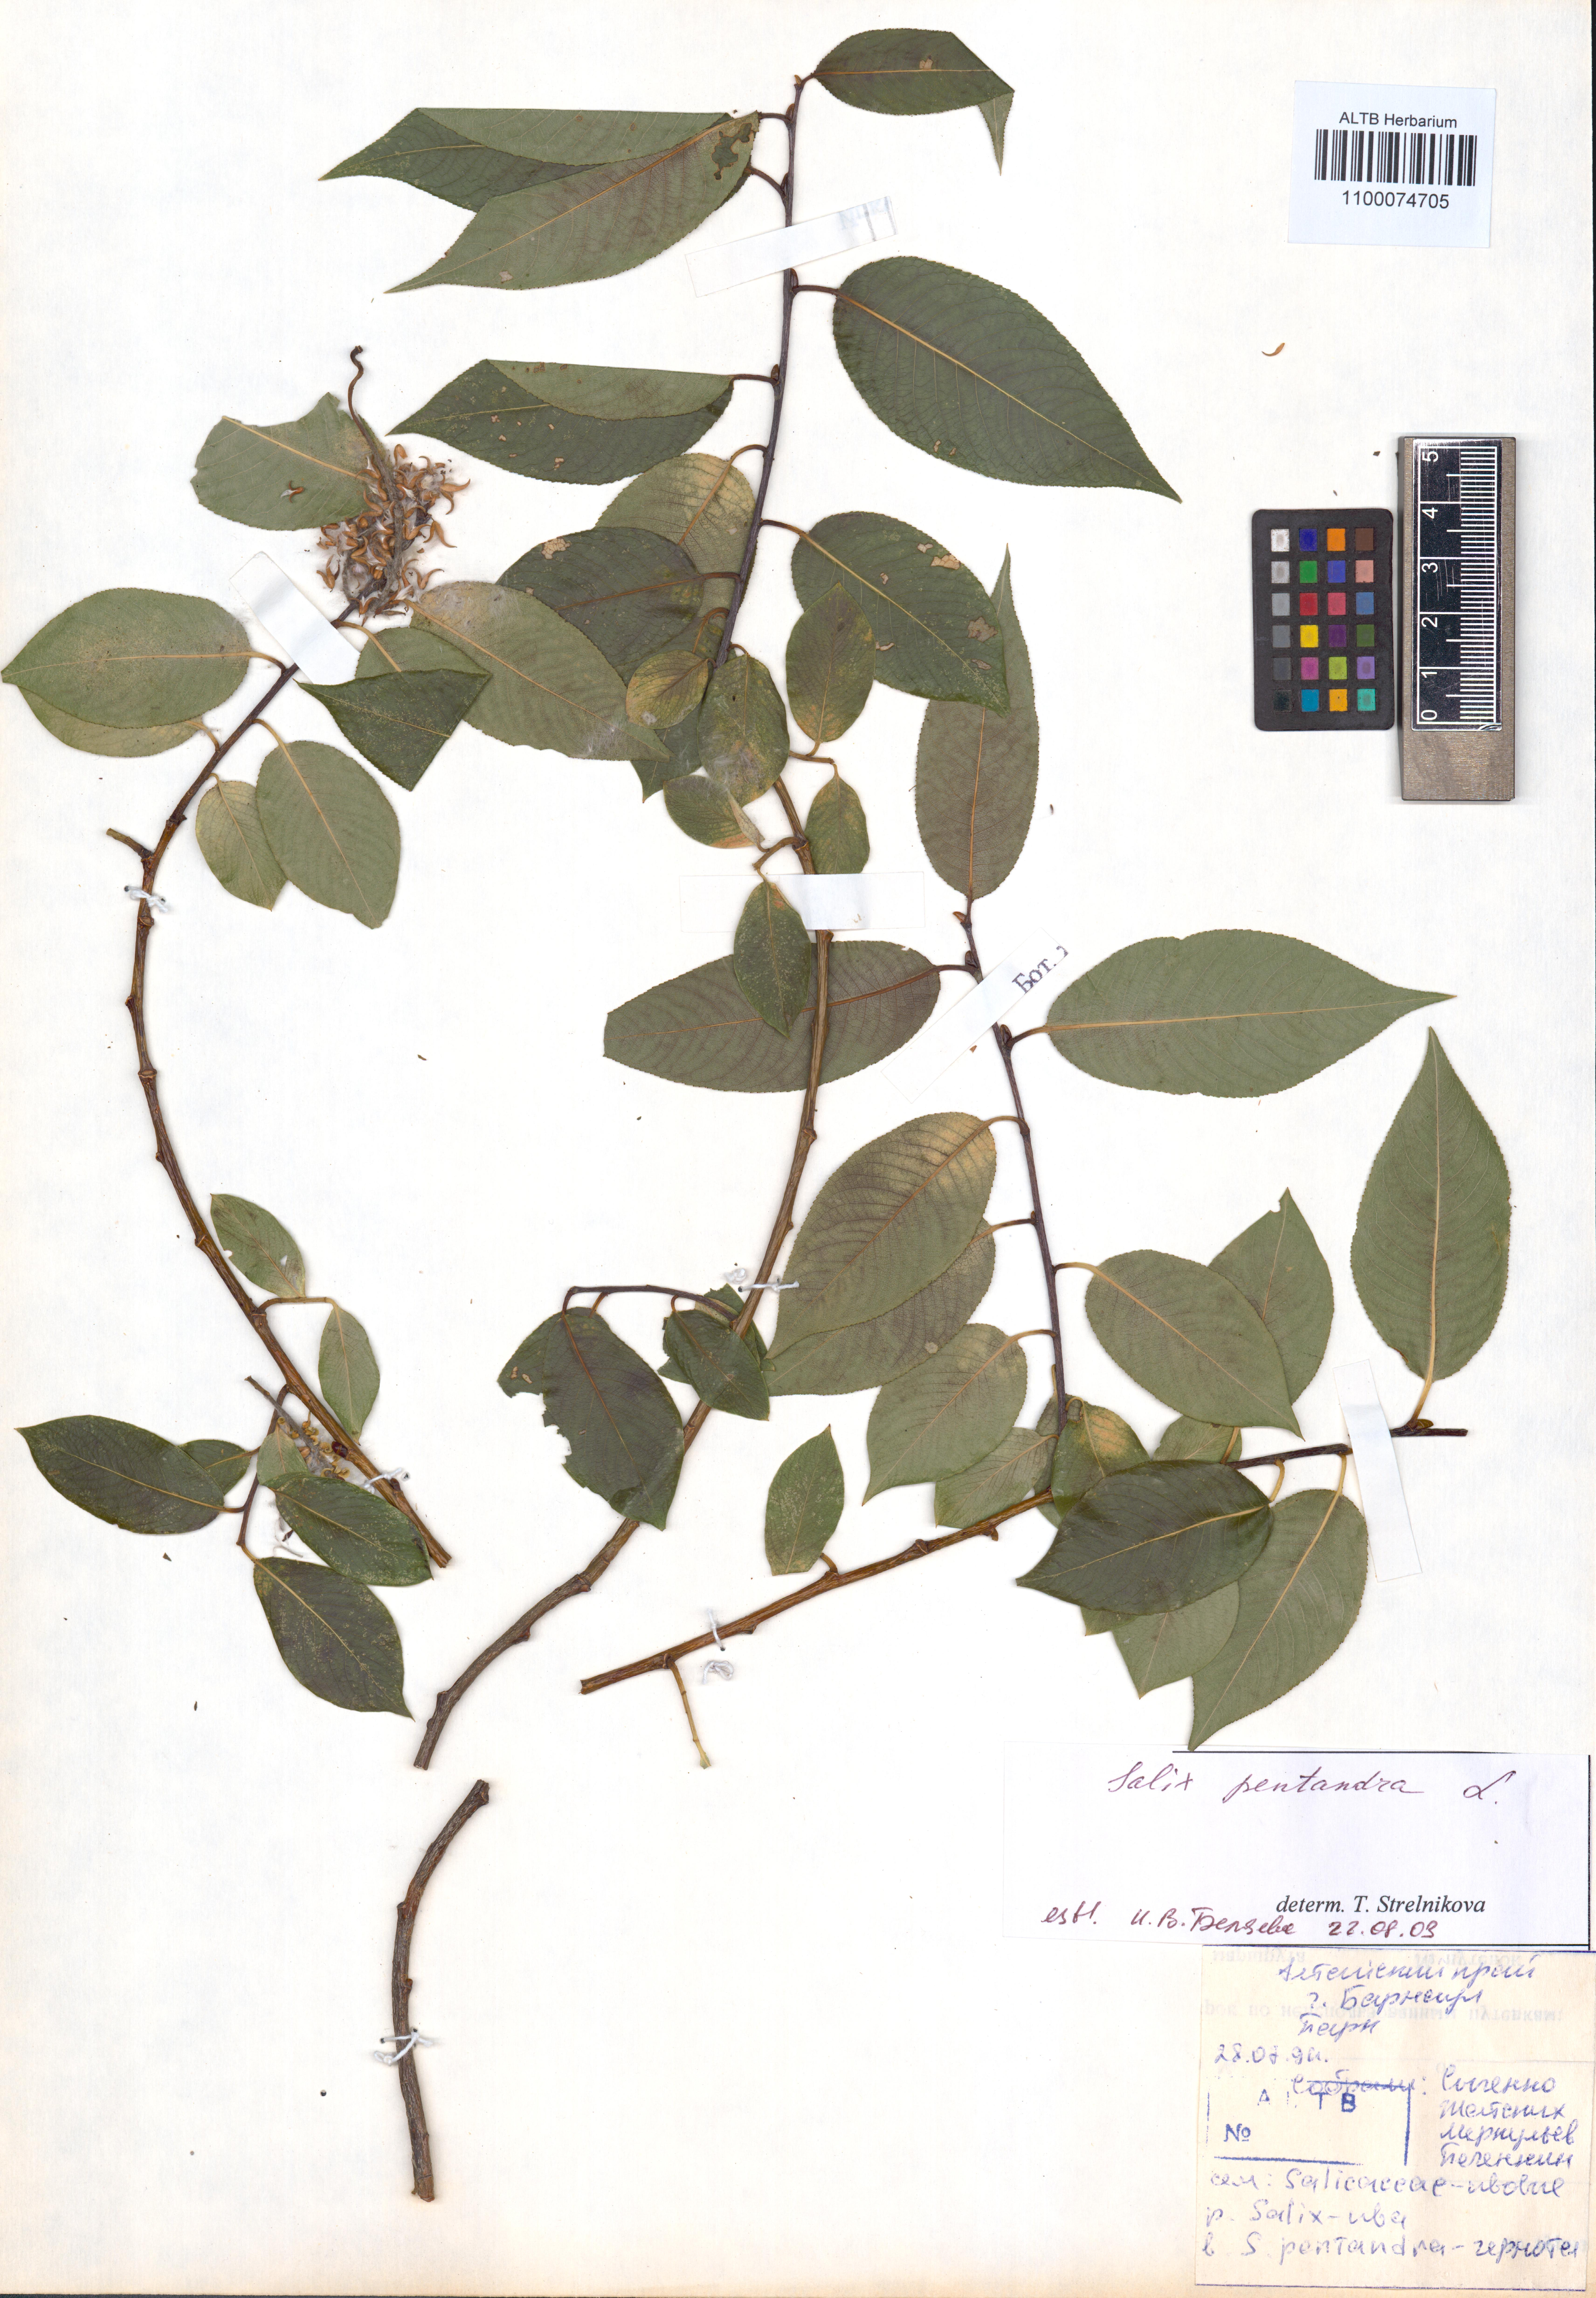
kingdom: Plantae
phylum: Tracheophyta
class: Magnoliopsida
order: Malpighiales
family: Salicaceae
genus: Salix
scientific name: Salix pentandra
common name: Bay willow
